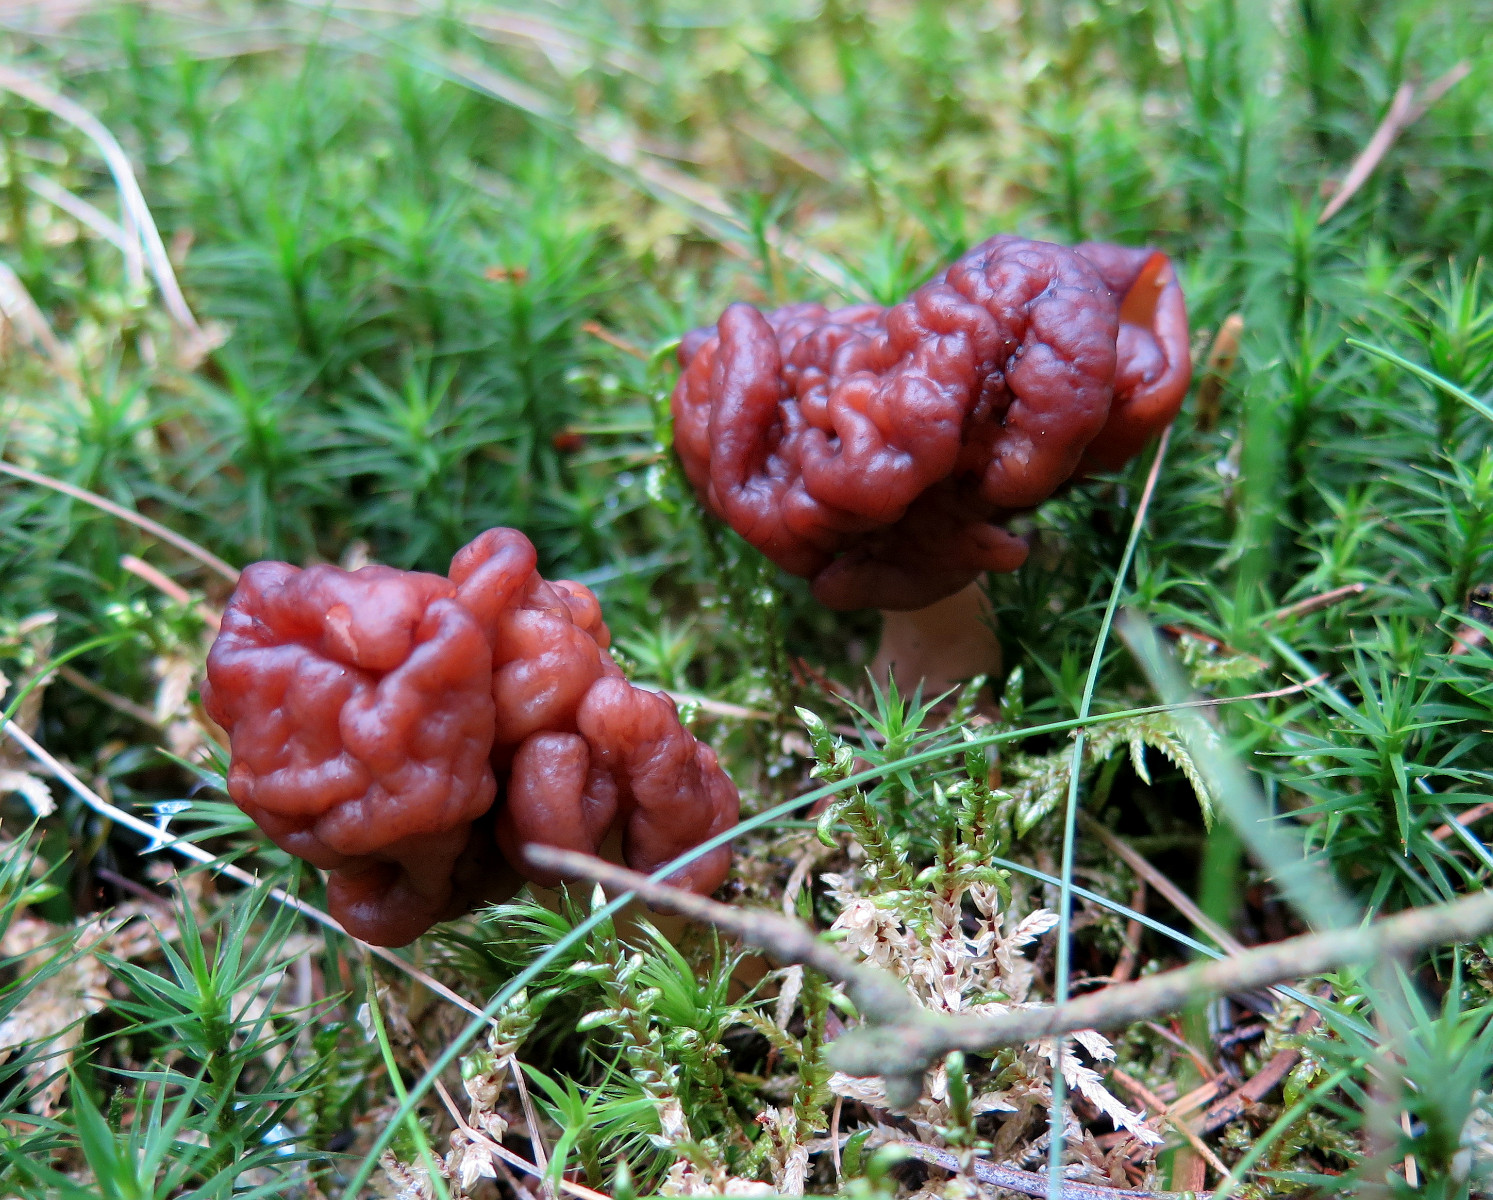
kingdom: Fungi
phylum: Ascomycota
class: Pezizomycetes
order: Pezizales
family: Discinaceae
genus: Gyromitra
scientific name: Gyromitra esculenta
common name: ægte stenmorkel
